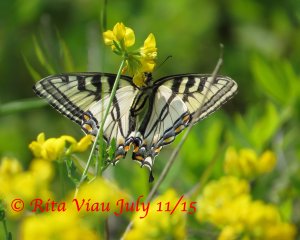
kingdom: Animalia
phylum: Arthropoda
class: Insecta
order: Lepidoptera
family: Papilionidae
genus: Pterourus
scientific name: Pterourus canadensis
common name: Canadian Tiger Swallowtail
